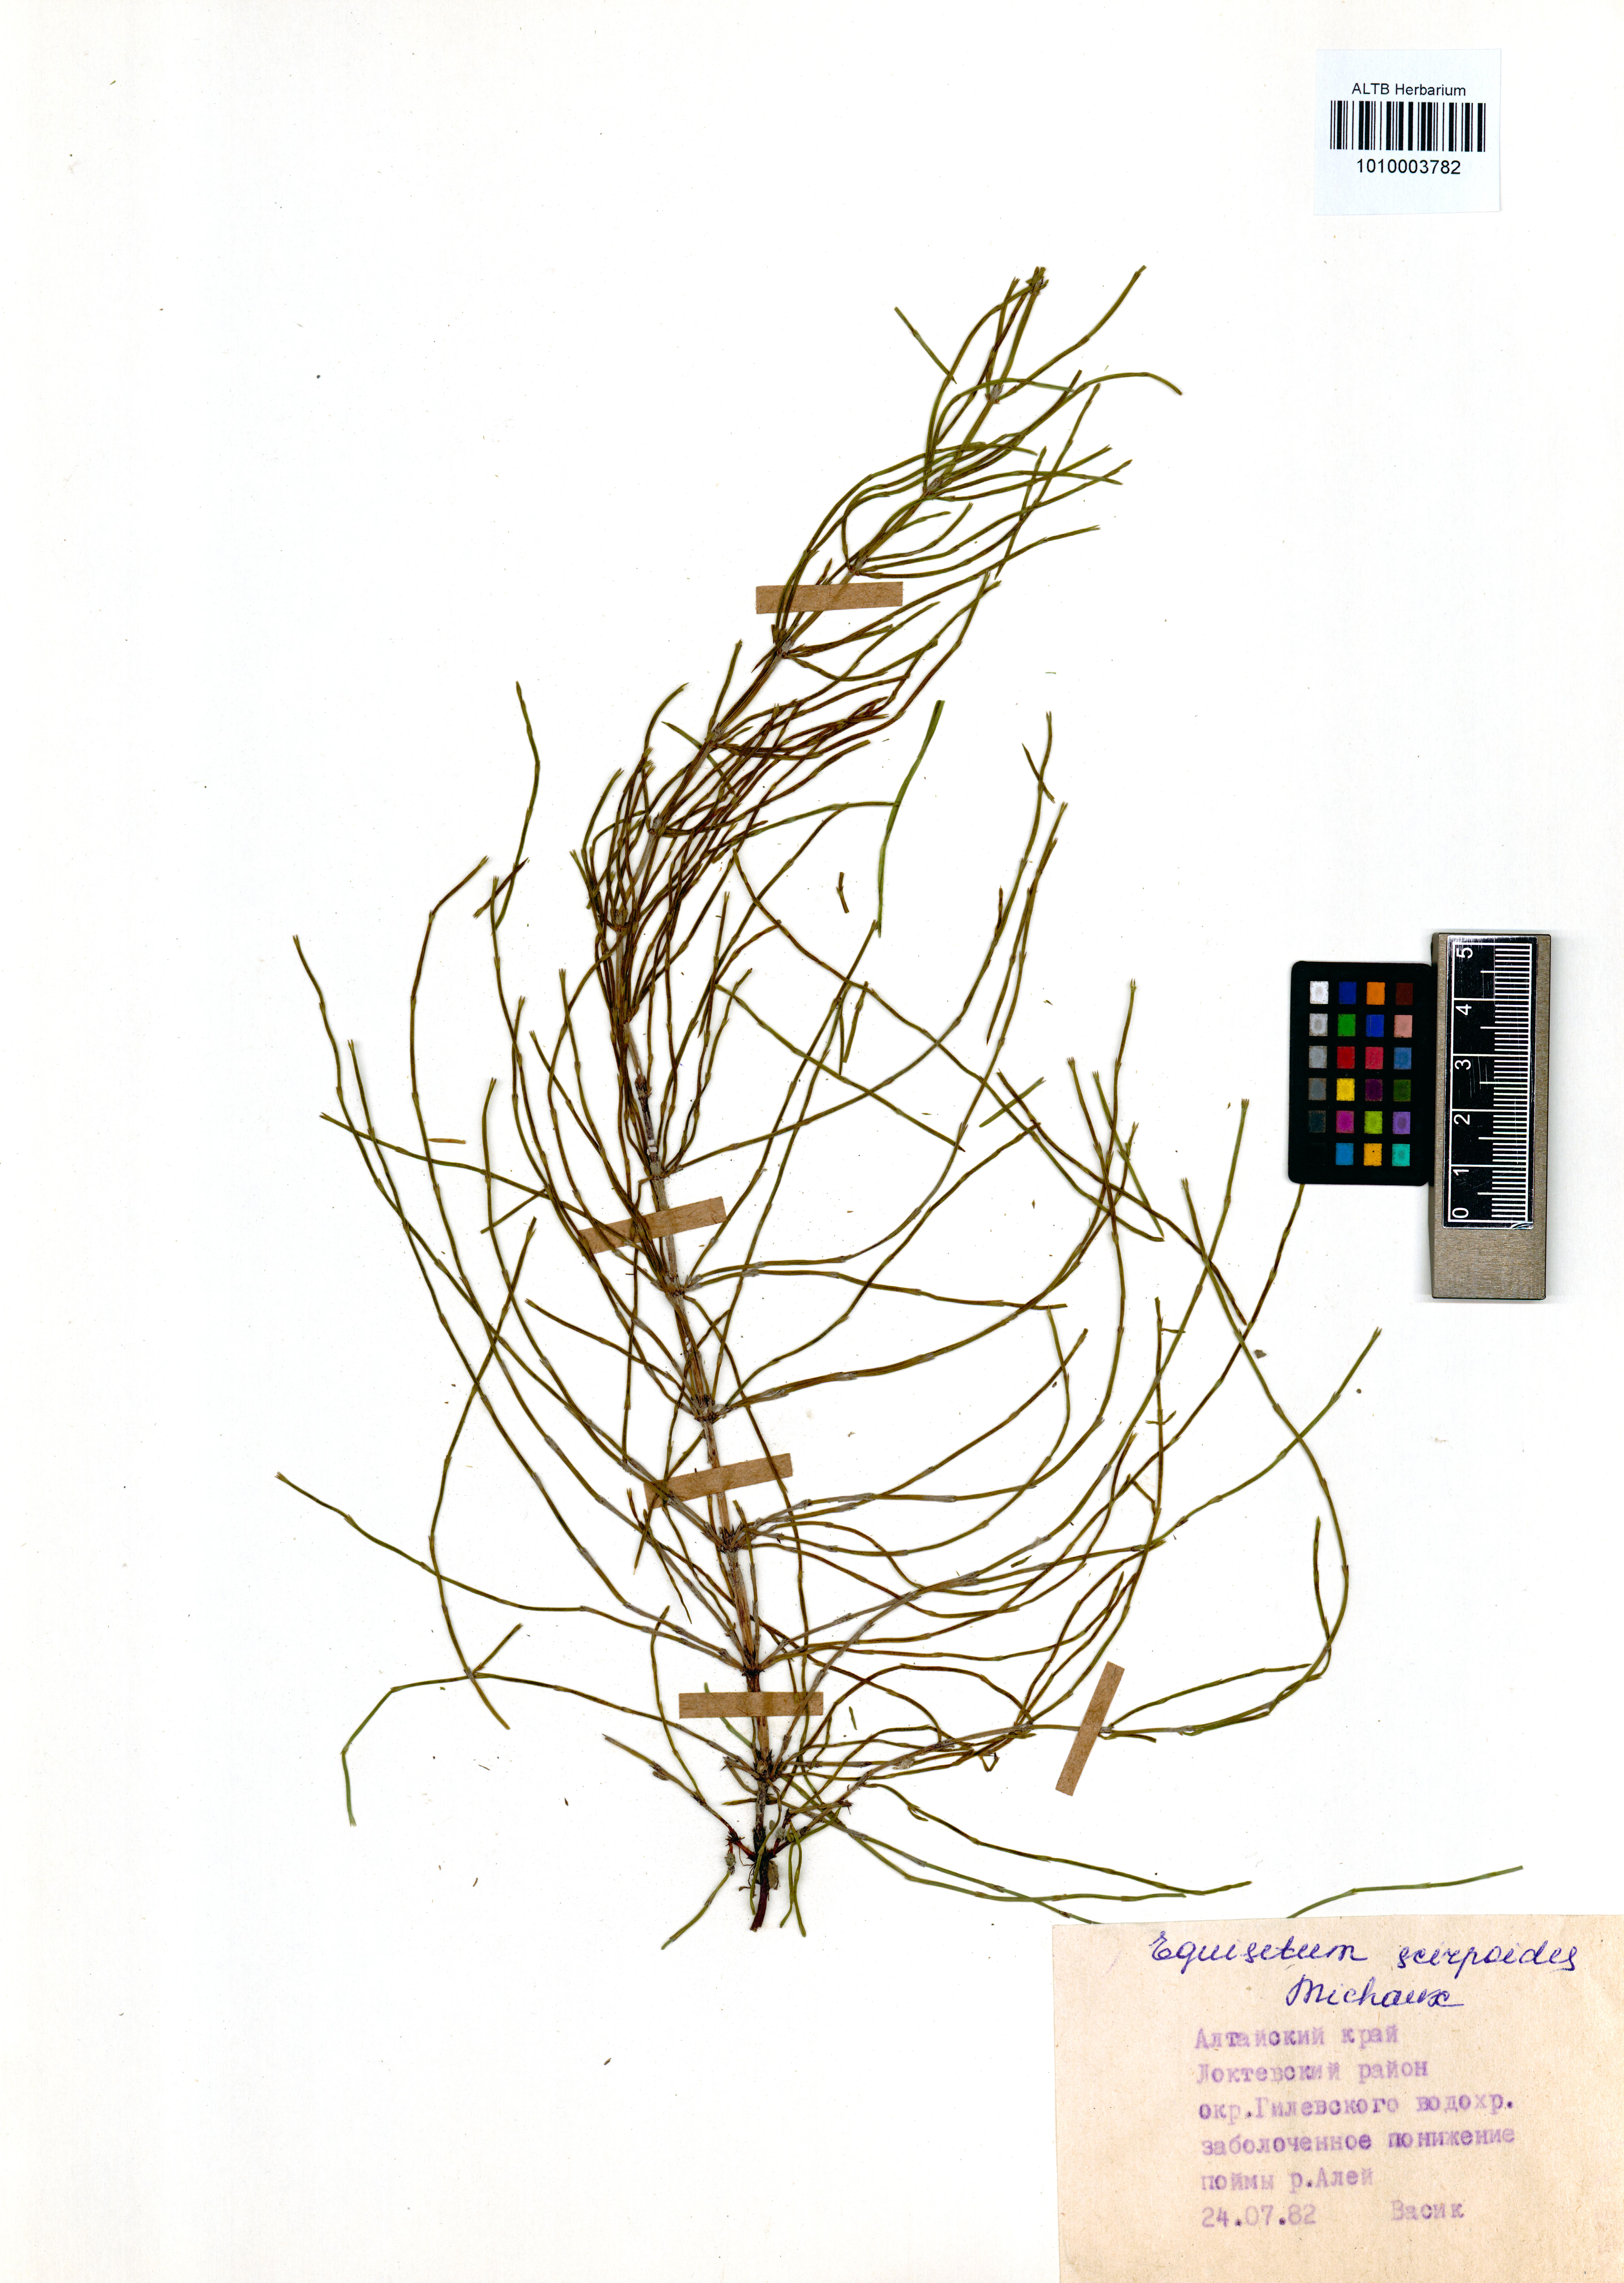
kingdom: Plantae
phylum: Tracheophyta
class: Polypodiopsida
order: Equisetales
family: Equisetaceae
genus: Equisetum
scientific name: Equisetum scirpoides
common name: Delicate horsetail
